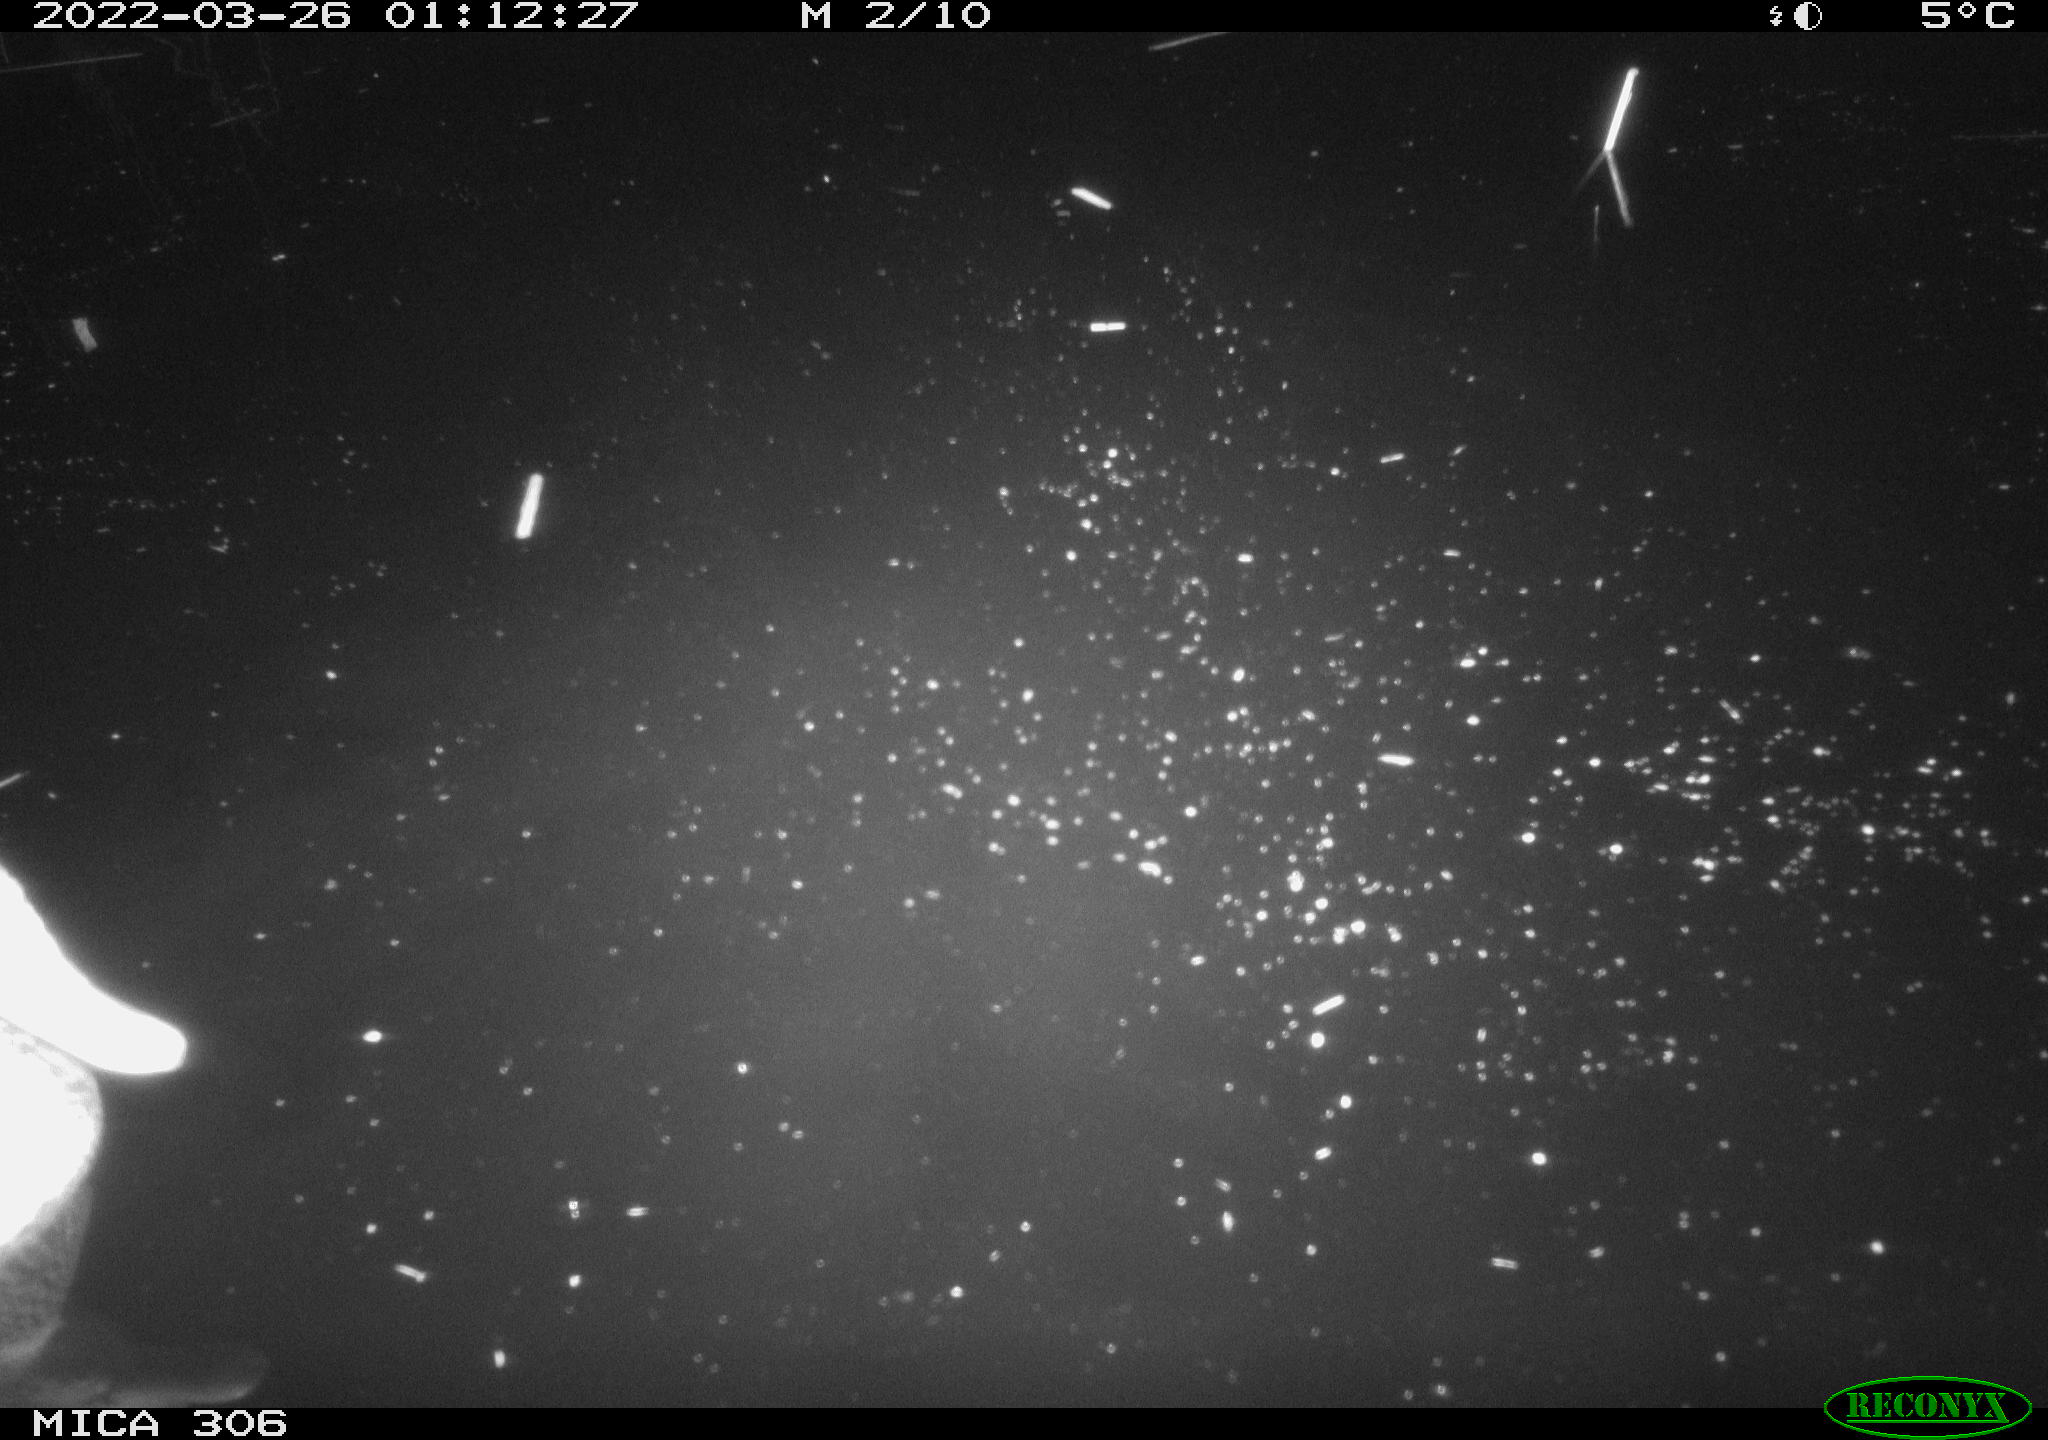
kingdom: Animalia
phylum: Chordata
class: Aves
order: Anseriformes
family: Anatidae
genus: Anas
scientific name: Anas platyrhynchos
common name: Mallard
